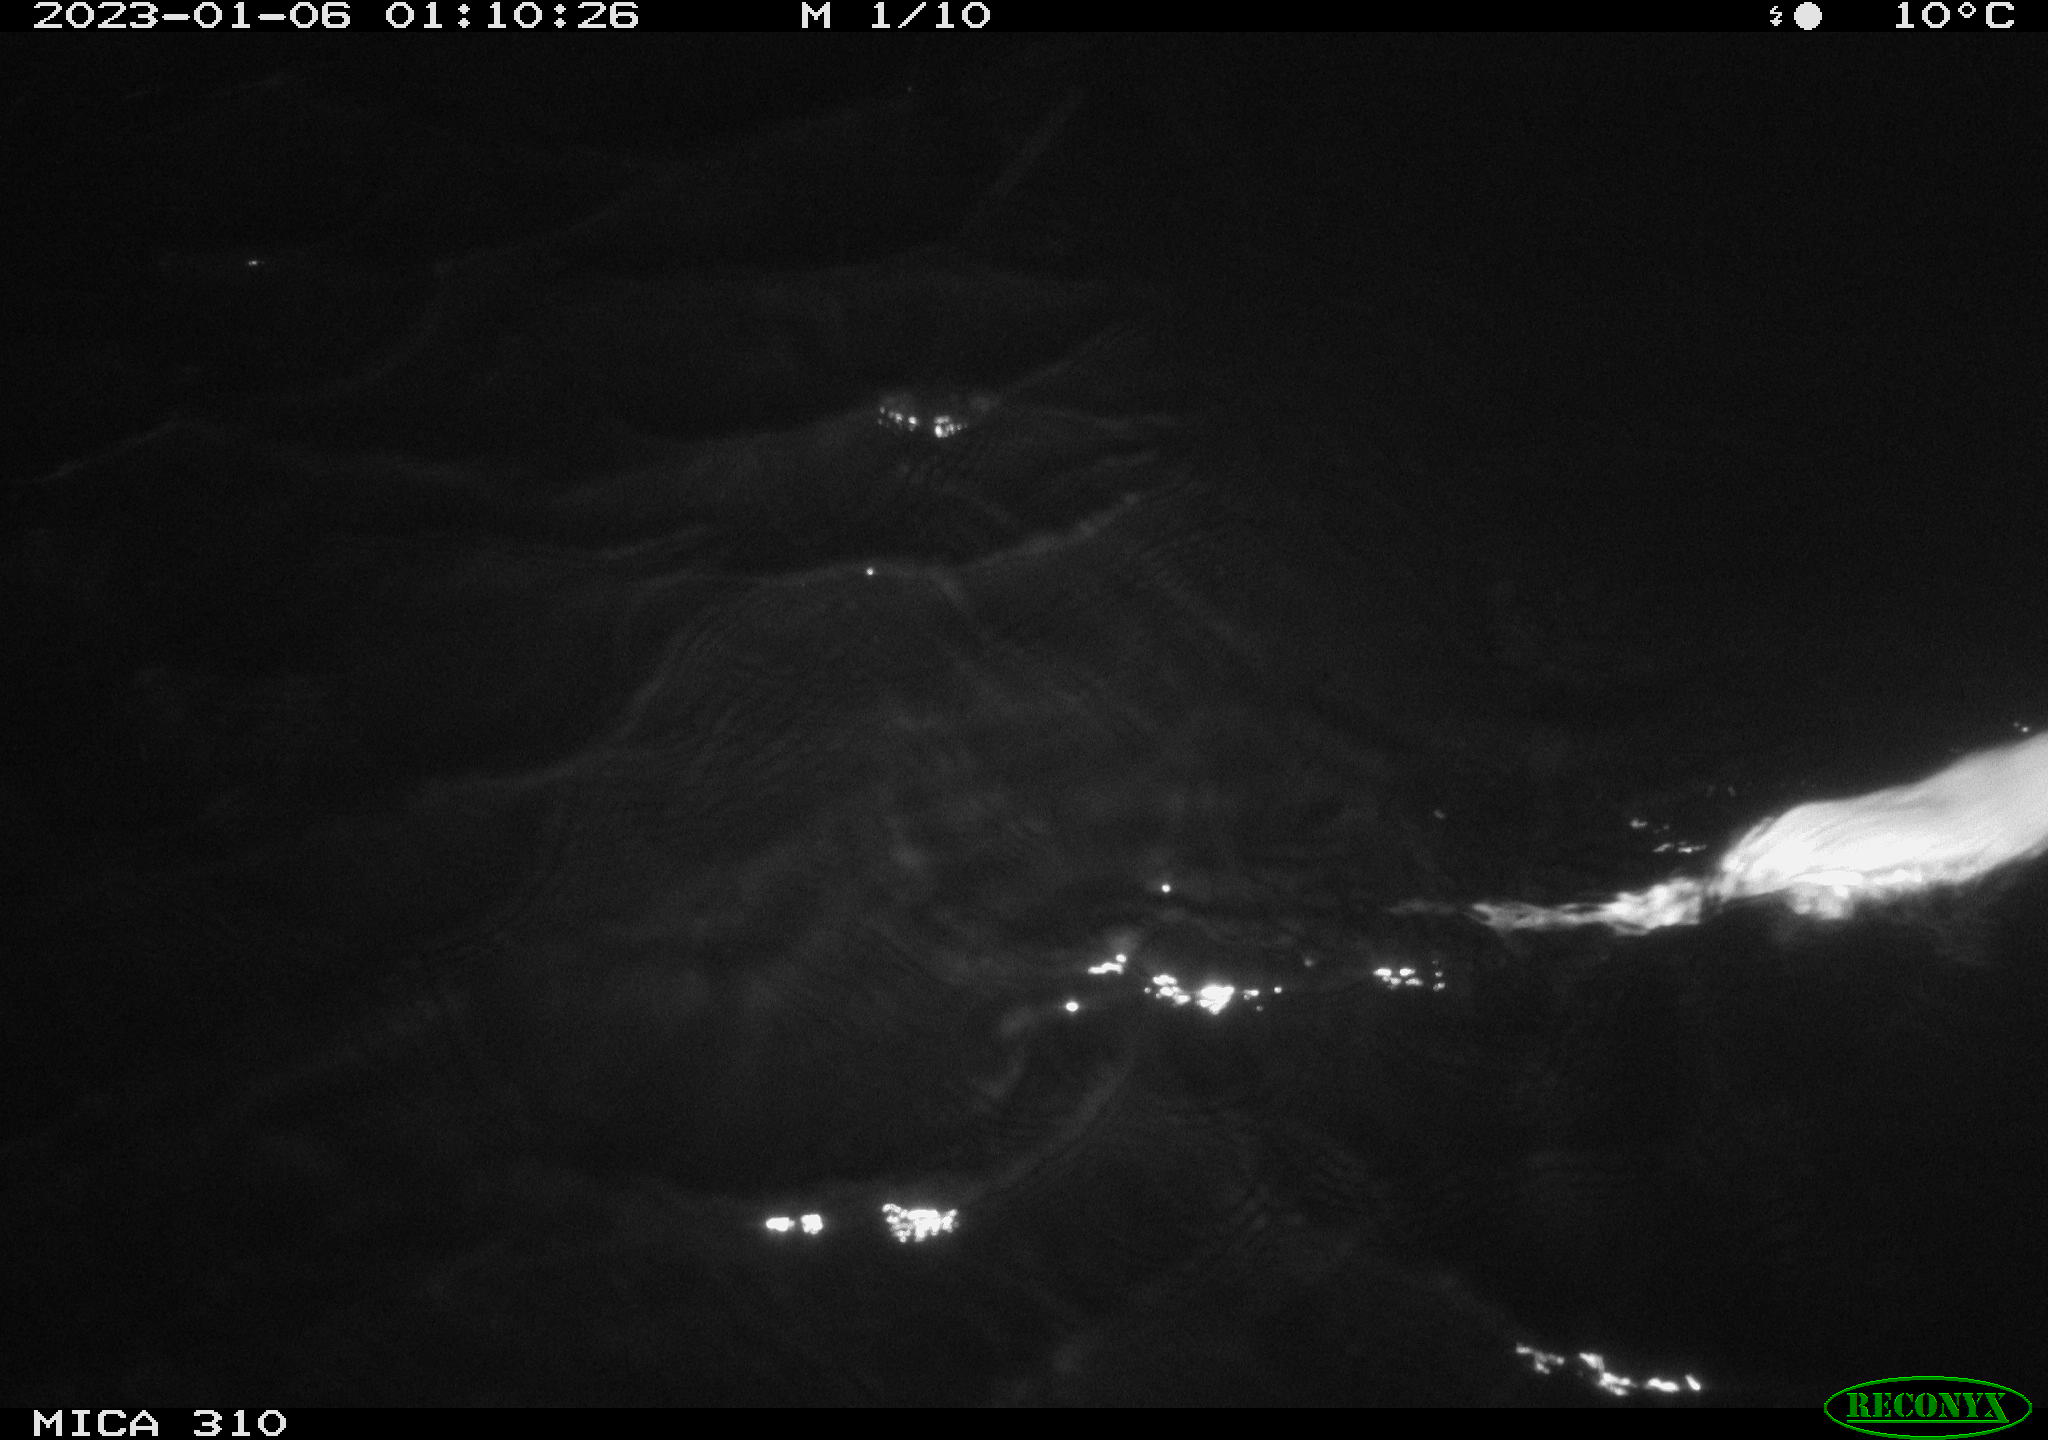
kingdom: Animalia
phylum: Chordata
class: Mammalia
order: Rodentia
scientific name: Rodentia
